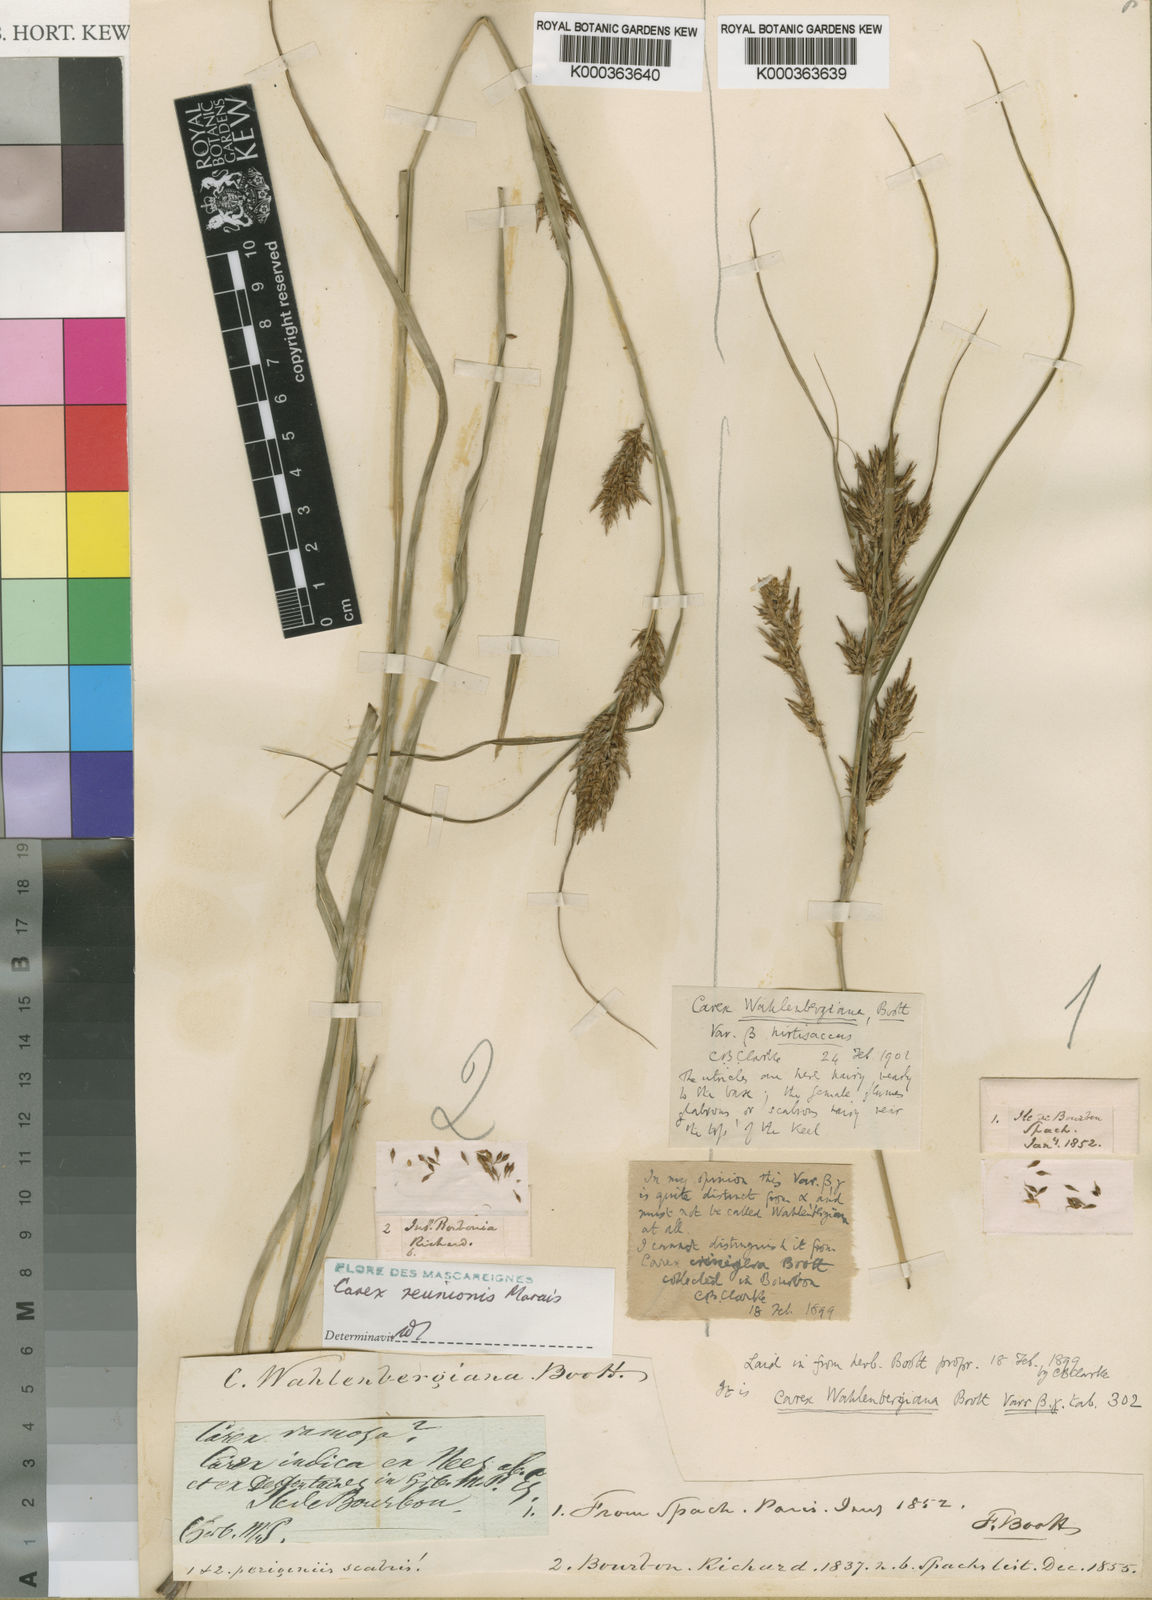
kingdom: Plantae
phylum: Tracheophyta
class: Liliopsida
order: Poales
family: Cyperaceae
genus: Carex
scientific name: Carex wahlenbergiana
